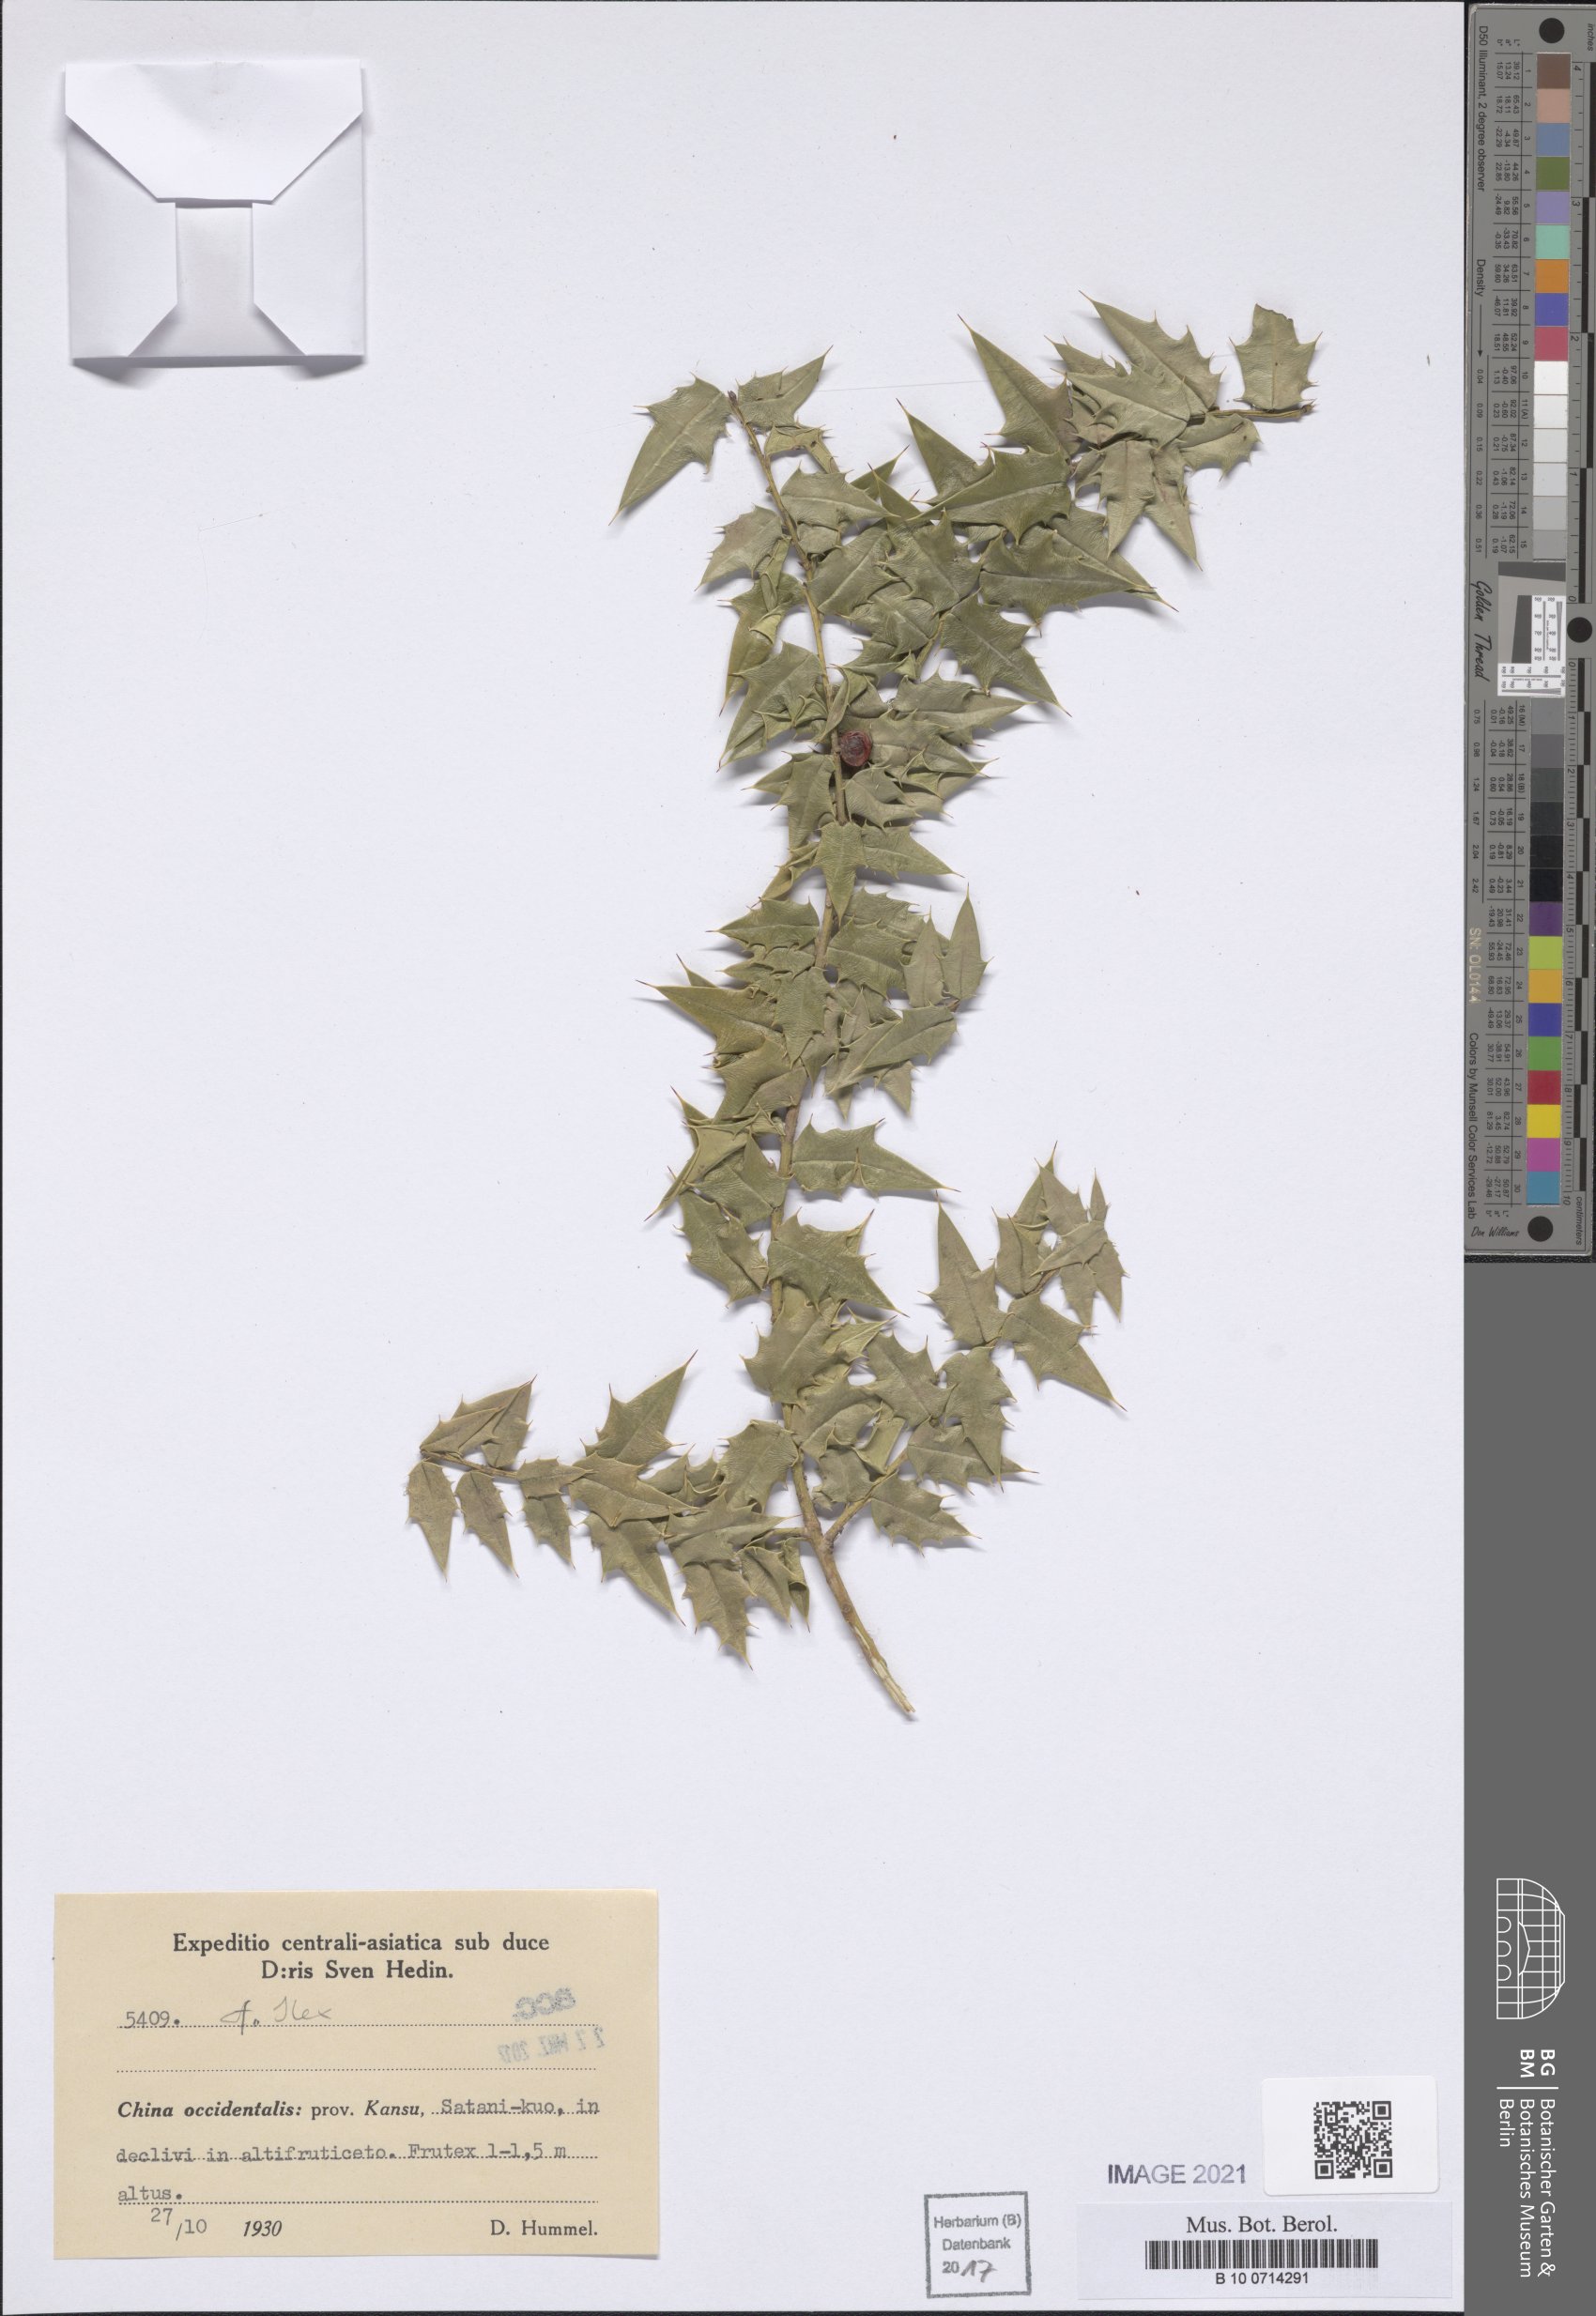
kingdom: Plantae
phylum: Tracheophyta
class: Magnoliopsida
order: Aquifoliales
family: Aquifoliaceae
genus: Ilex
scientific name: Ilex
